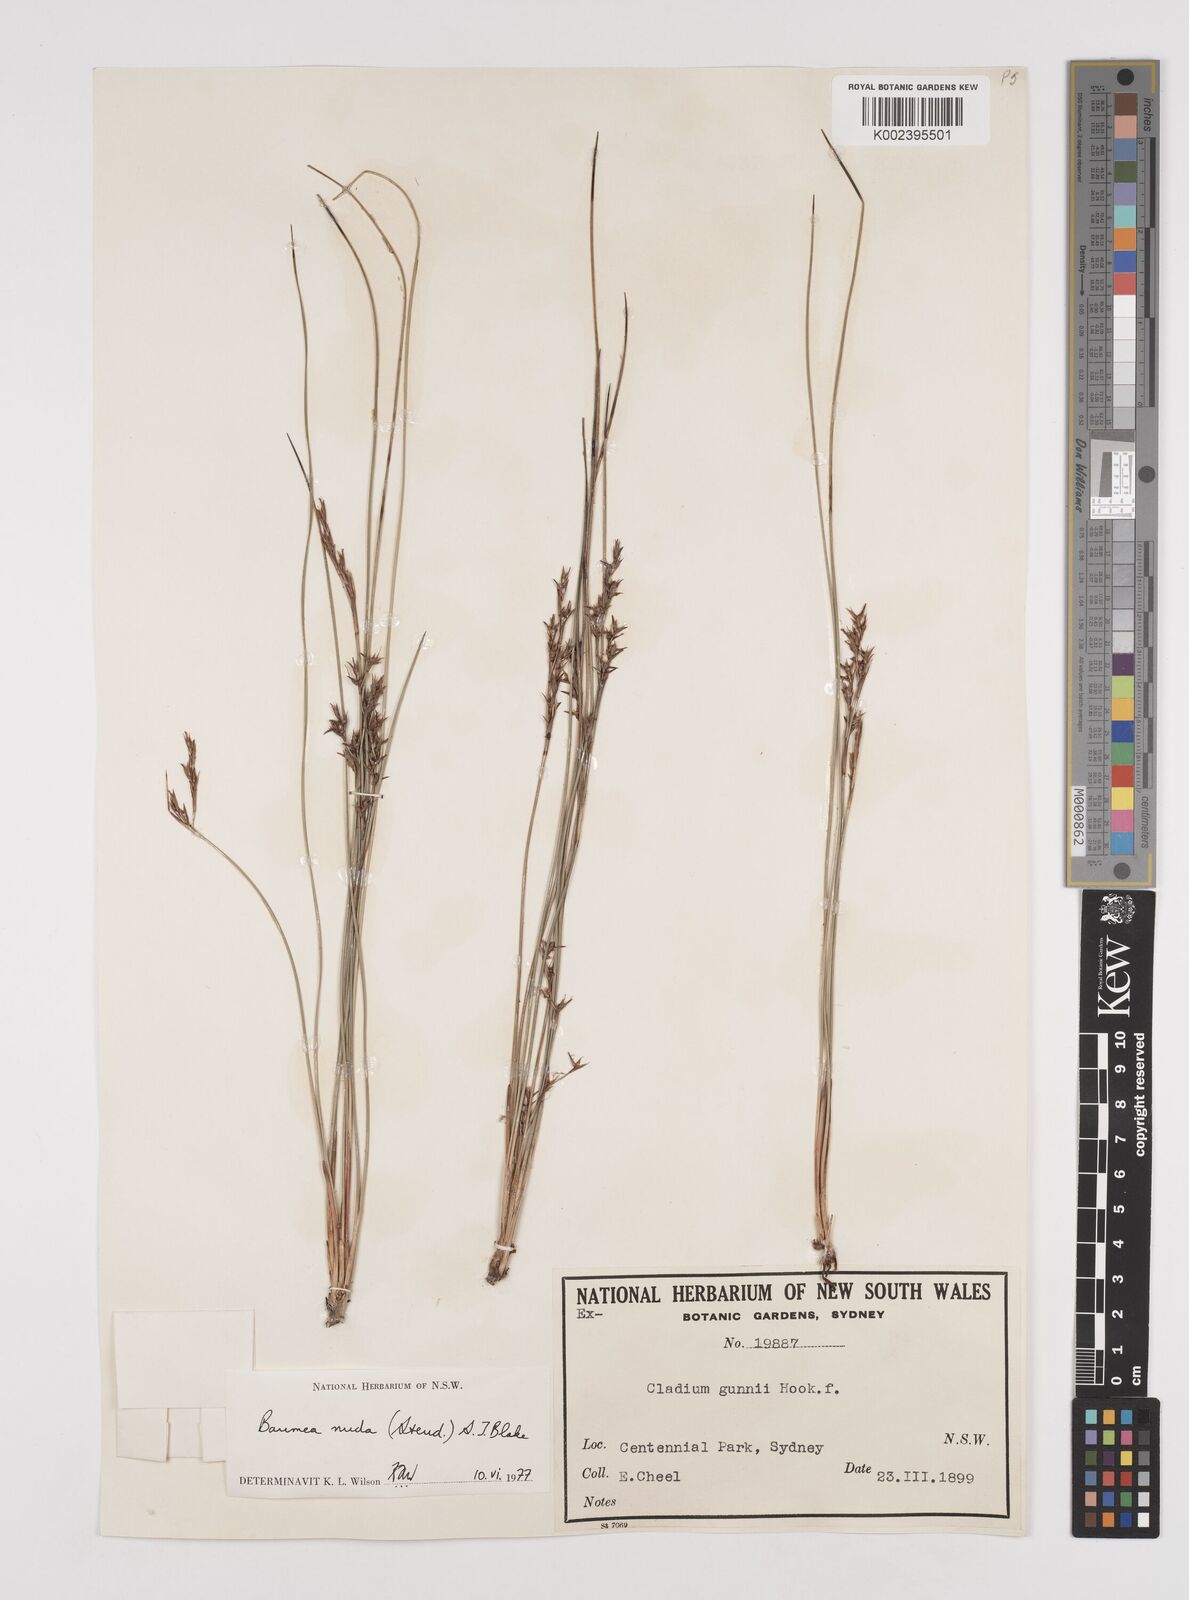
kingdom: Plantae
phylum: Tracheophyta
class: Liliopsida
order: Poales
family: Cyperaceae
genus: Machaerina
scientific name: Machaerina nuda
